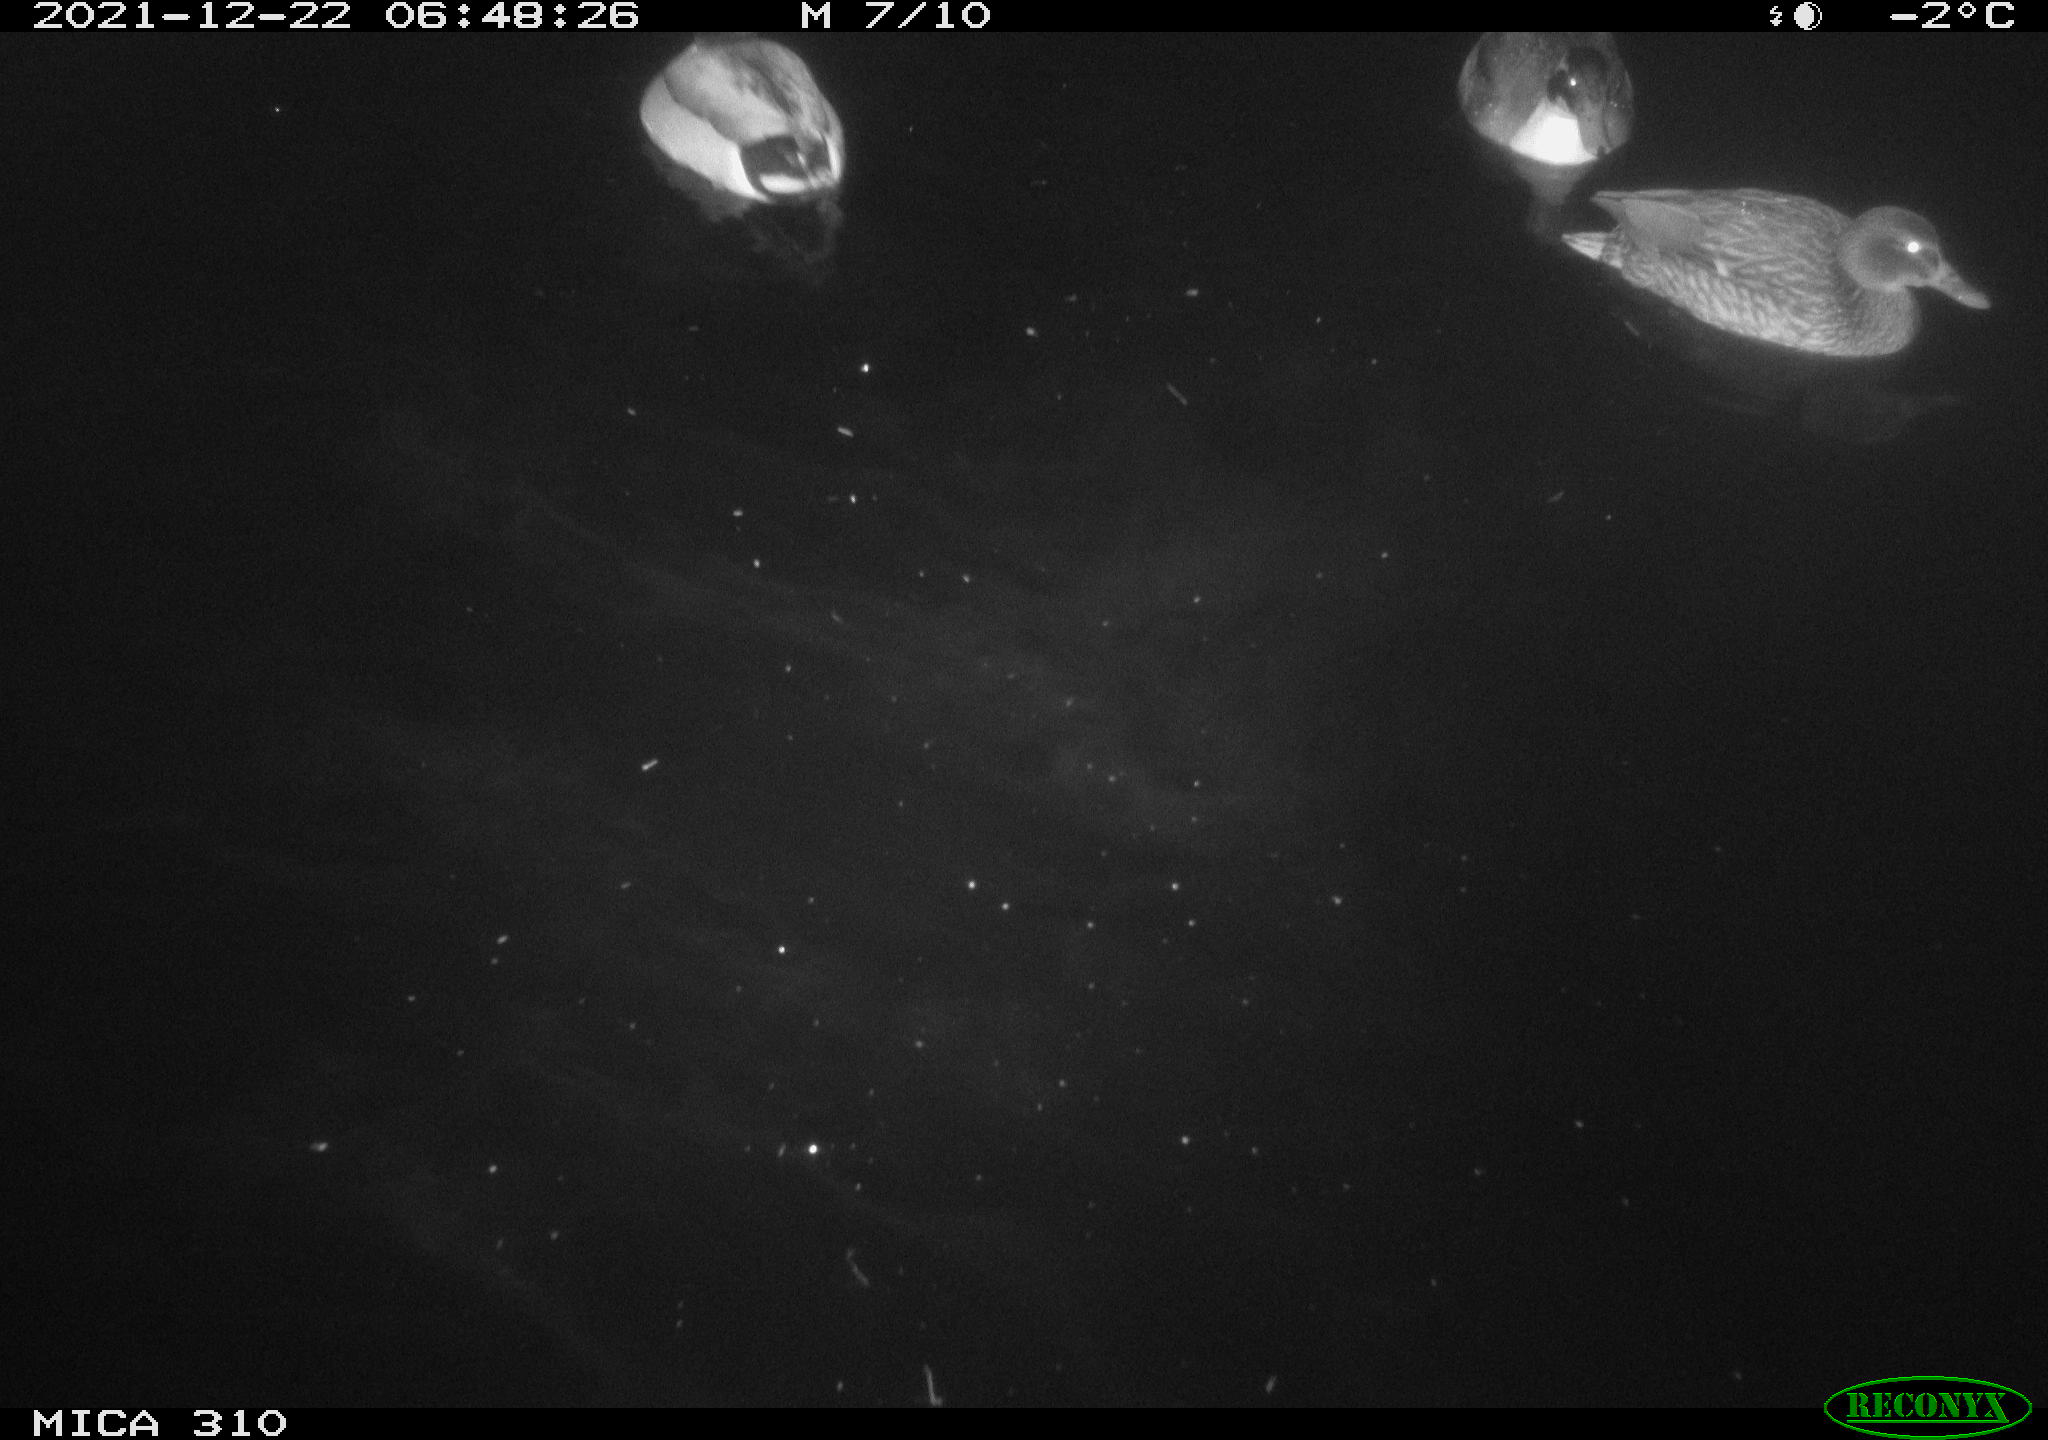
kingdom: Animalia
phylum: Chordata
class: Aves
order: Anseriformes
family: Anatidae
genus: Anas
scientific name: Anas platyrhynchos
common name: Mallard
